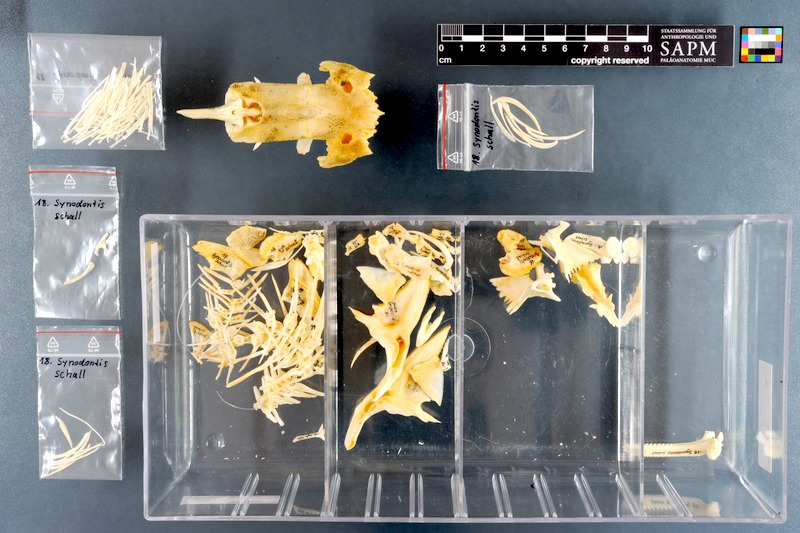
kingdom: Animalia
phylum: Chordata
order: Siluriformes
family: Mochokidae
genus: Synodontis
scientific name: Synodontis schall
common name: Wahrindi
